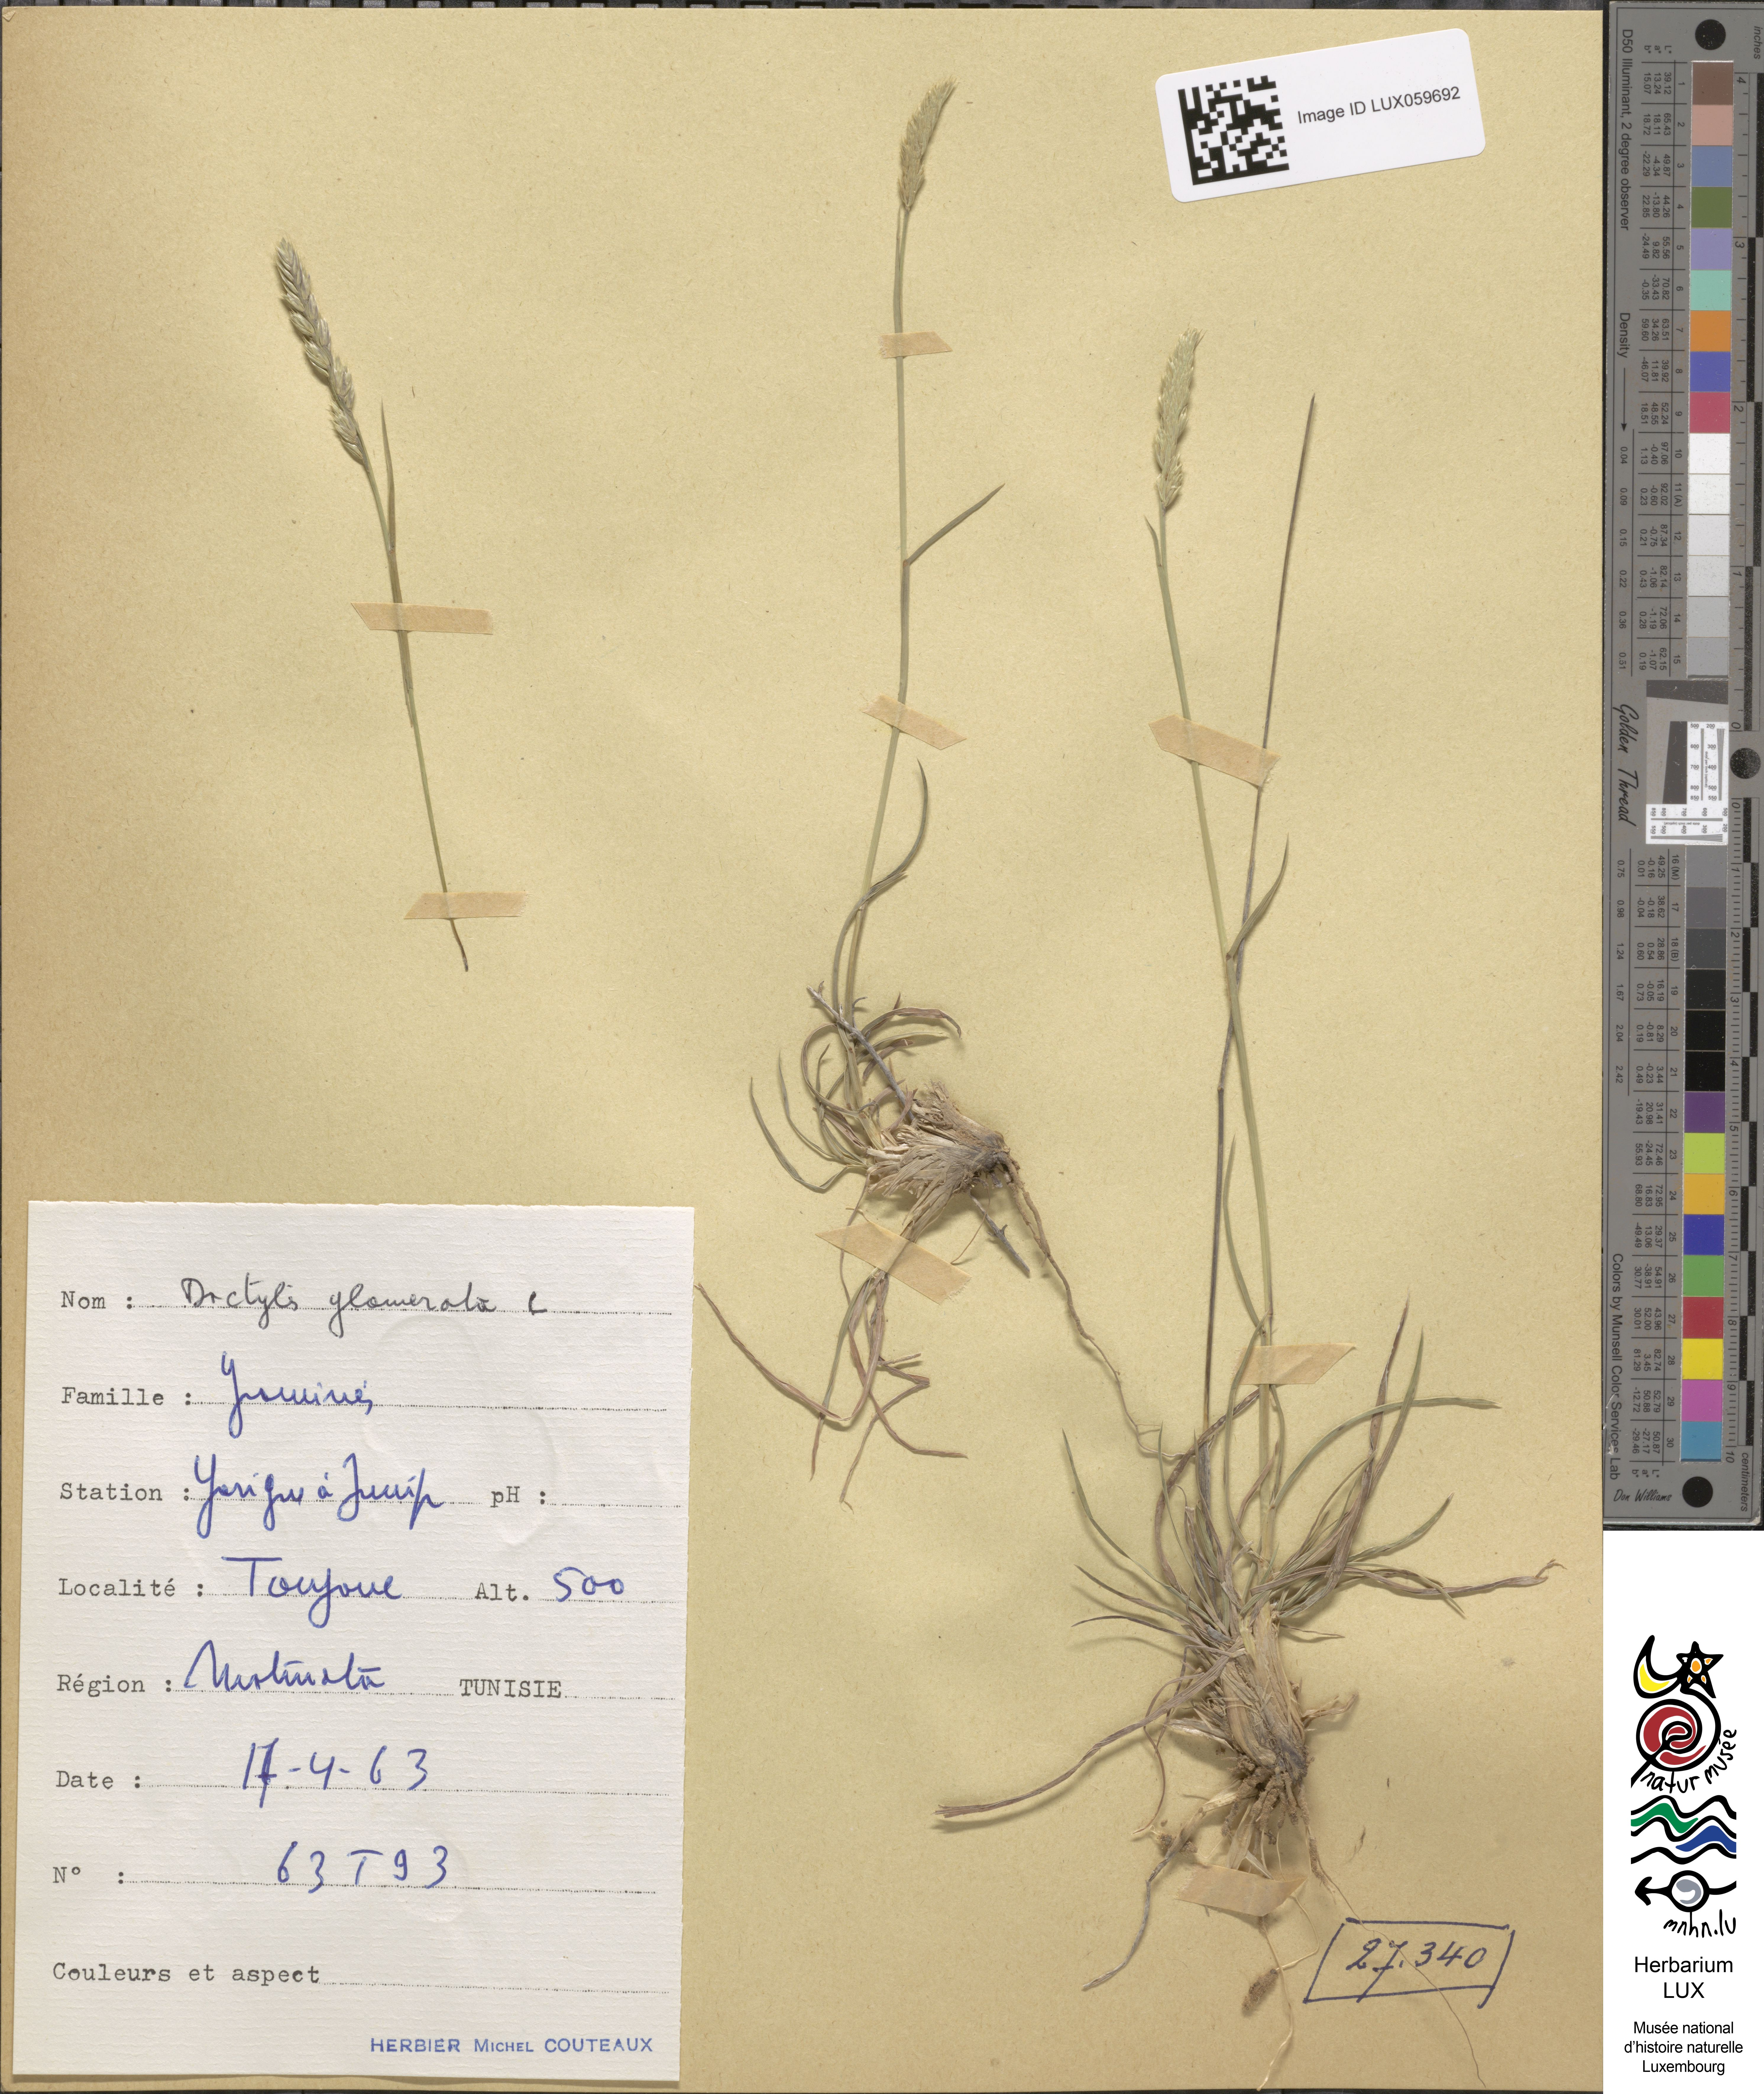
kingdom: Plantae
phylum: Tracheophyta
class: Liliopsida
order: Poales
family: Poaceae
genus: Dactylis
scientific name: Dactylis glomerata
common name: Orchardgrass
